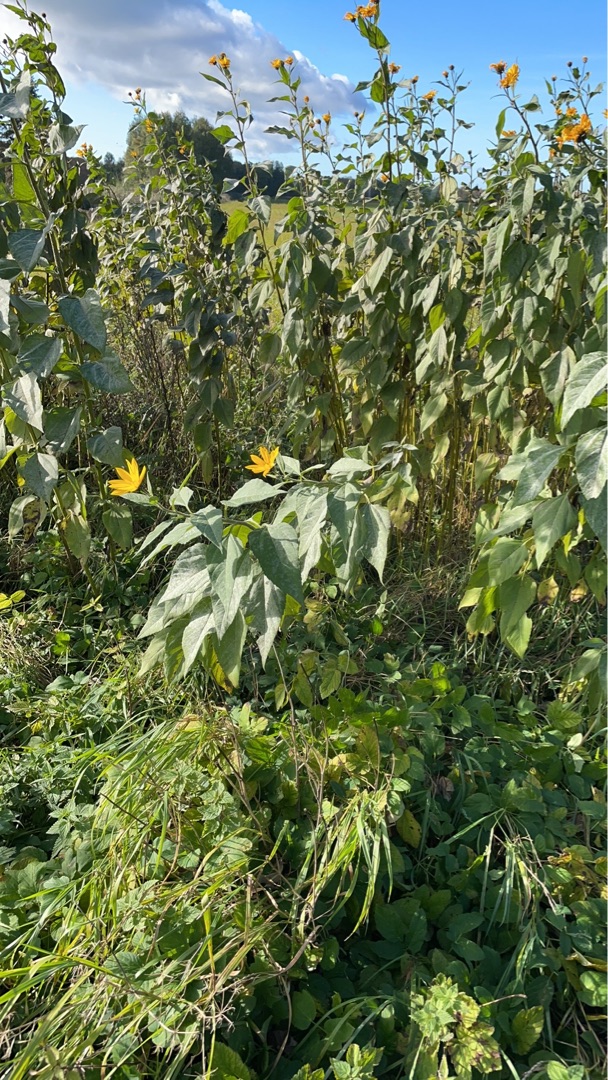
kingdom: Plantae
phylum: Tracheophyta
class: Magnoliopsida
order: Asterales
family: Asteraceae
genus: Helianthus
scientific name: Helianthus tuberosus
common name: Jordskok
